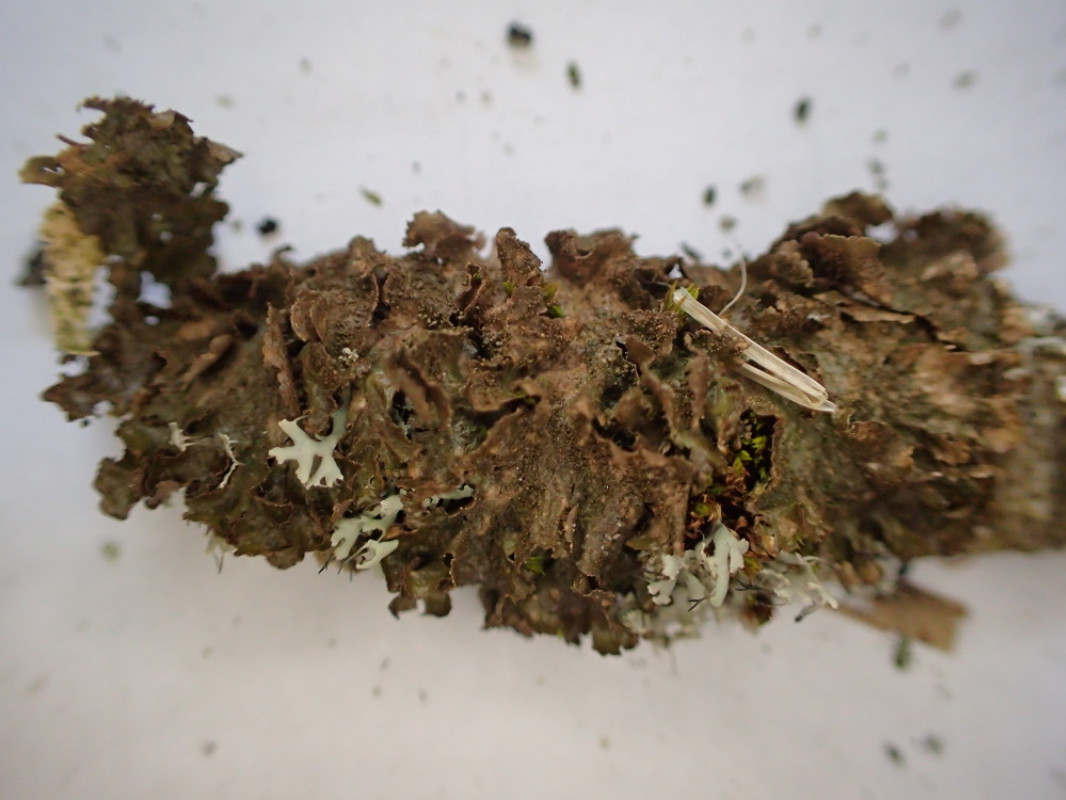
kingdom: Fungi
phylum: Ascomycota
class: Lecanoromycetes
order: Lecanorales
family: Parmeliaceae
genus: Melanelixia
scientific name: Melanelixia subaurifera
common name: guldpudret skållav
